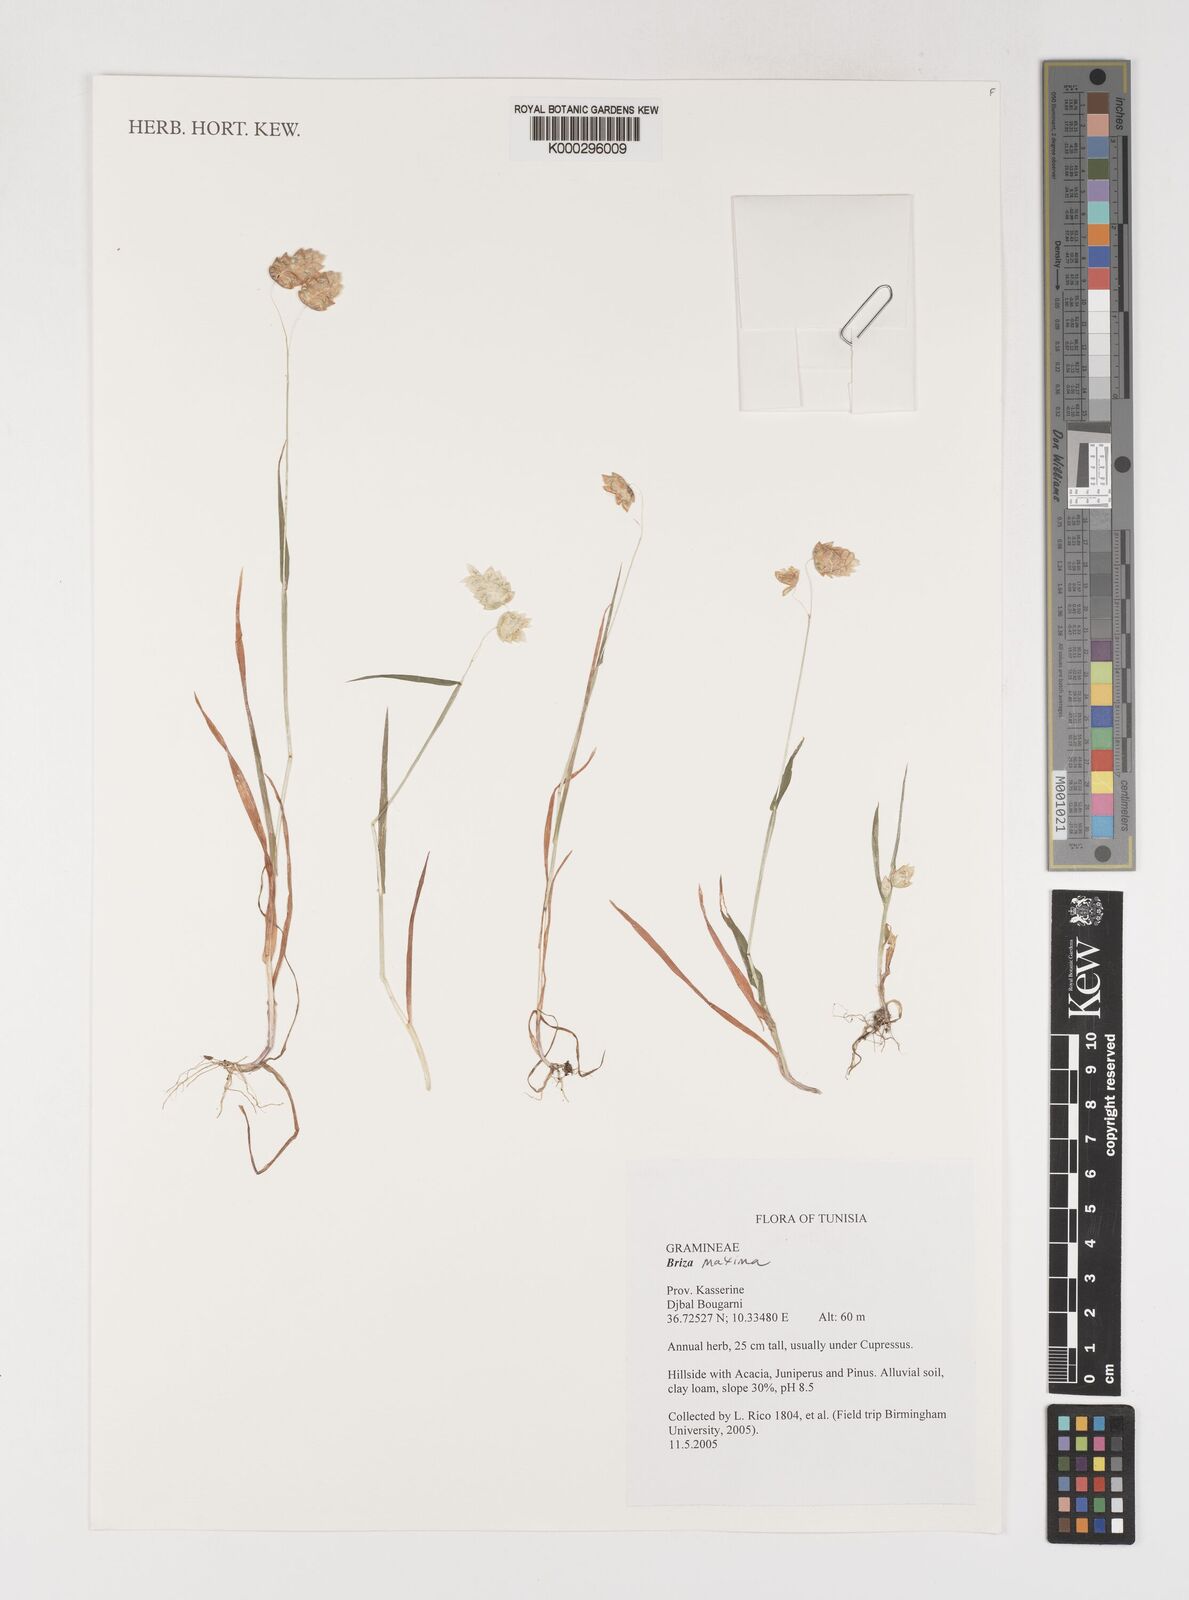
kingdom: Plantae
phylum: Tracheophyta
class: Liliopsida
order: Poales
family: Poaceae
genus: Briza
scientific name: Briza maxima
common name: Big quakinggrass
